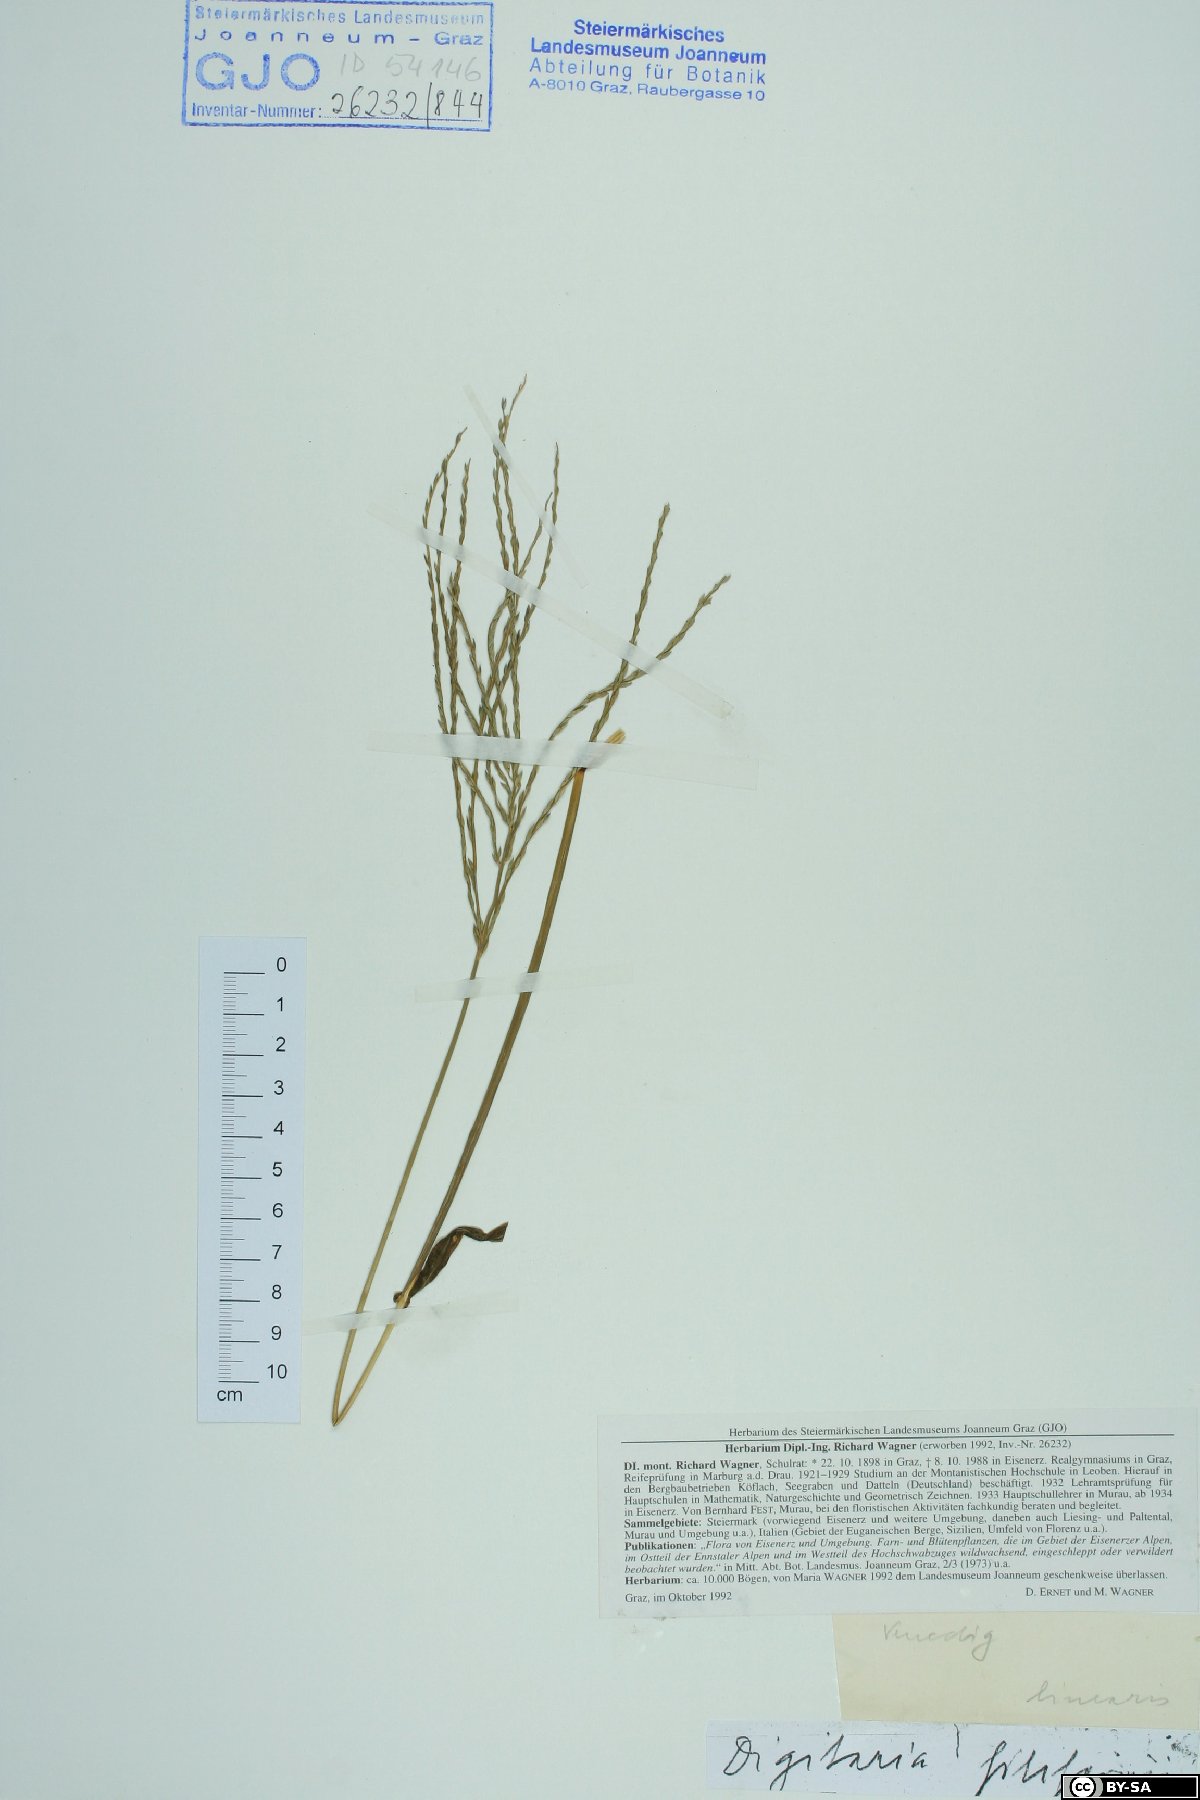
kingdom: Plantae
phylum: Tracheophyta
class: Liliopsida
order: Poales
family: Poaceae
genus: Digitaria
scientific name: Digitaria filiformis
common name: Slender crabgrass
